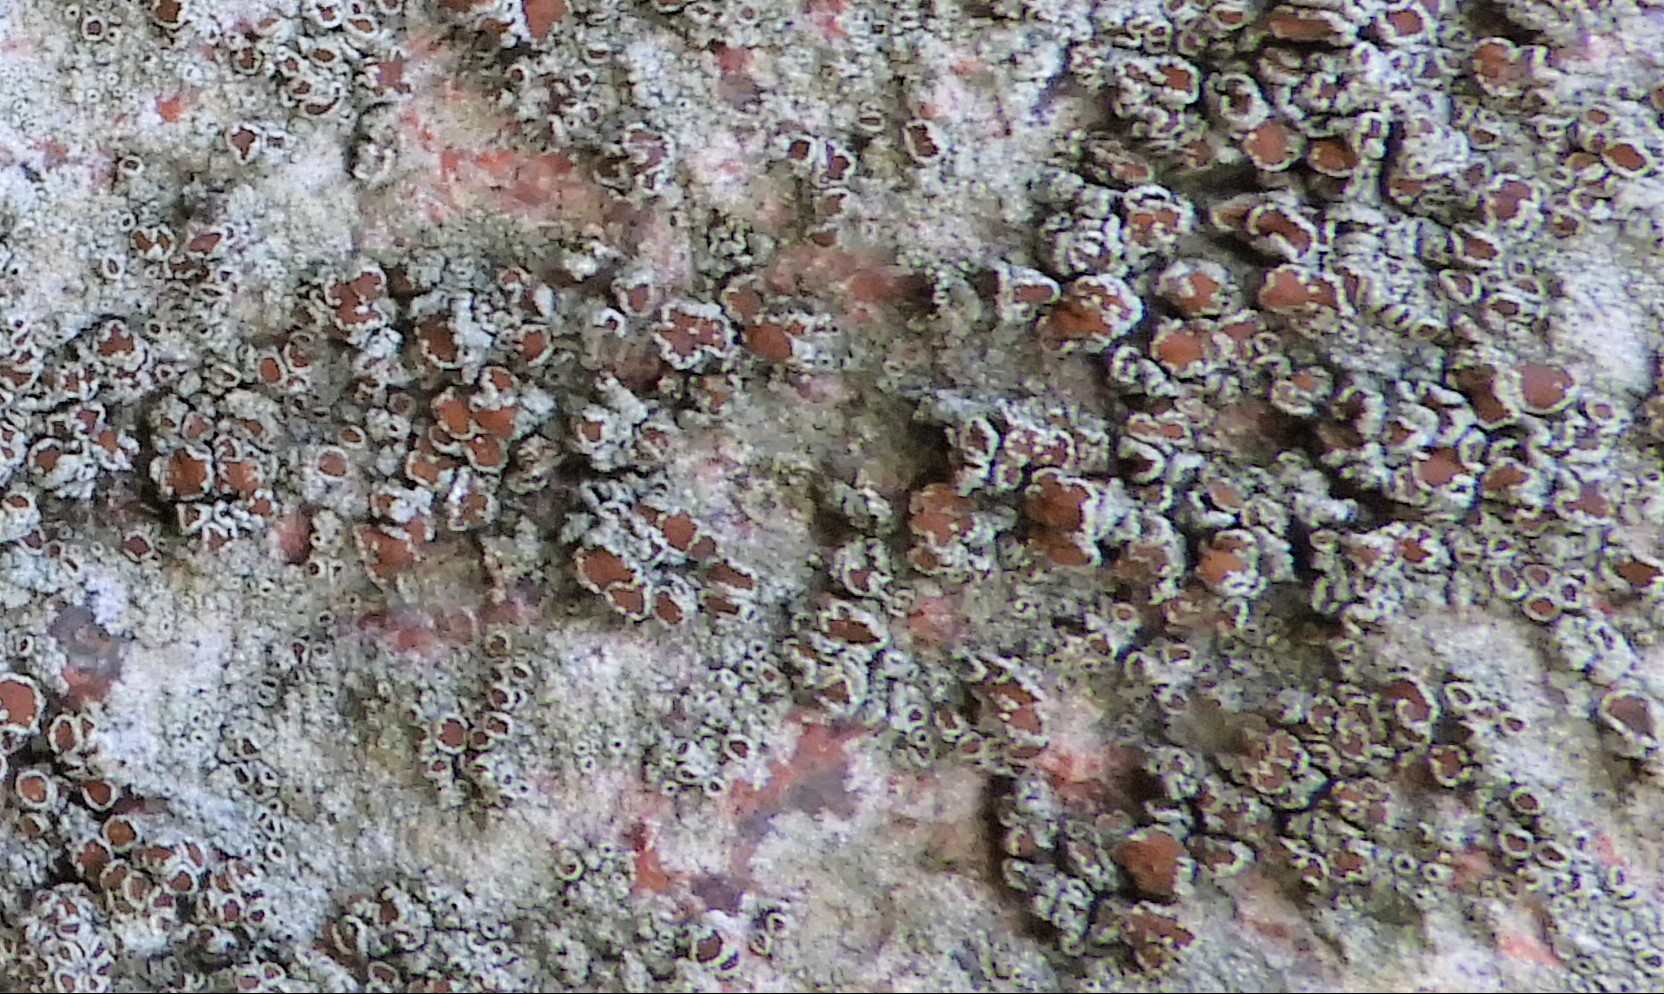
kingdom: Fungi
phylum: Ascomycota
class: Lecanoromycetes
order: Lecanorales
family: Lecanoraceae
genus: Lecanora
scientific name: Lecanora chlarotera
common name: brun kantskivelav
